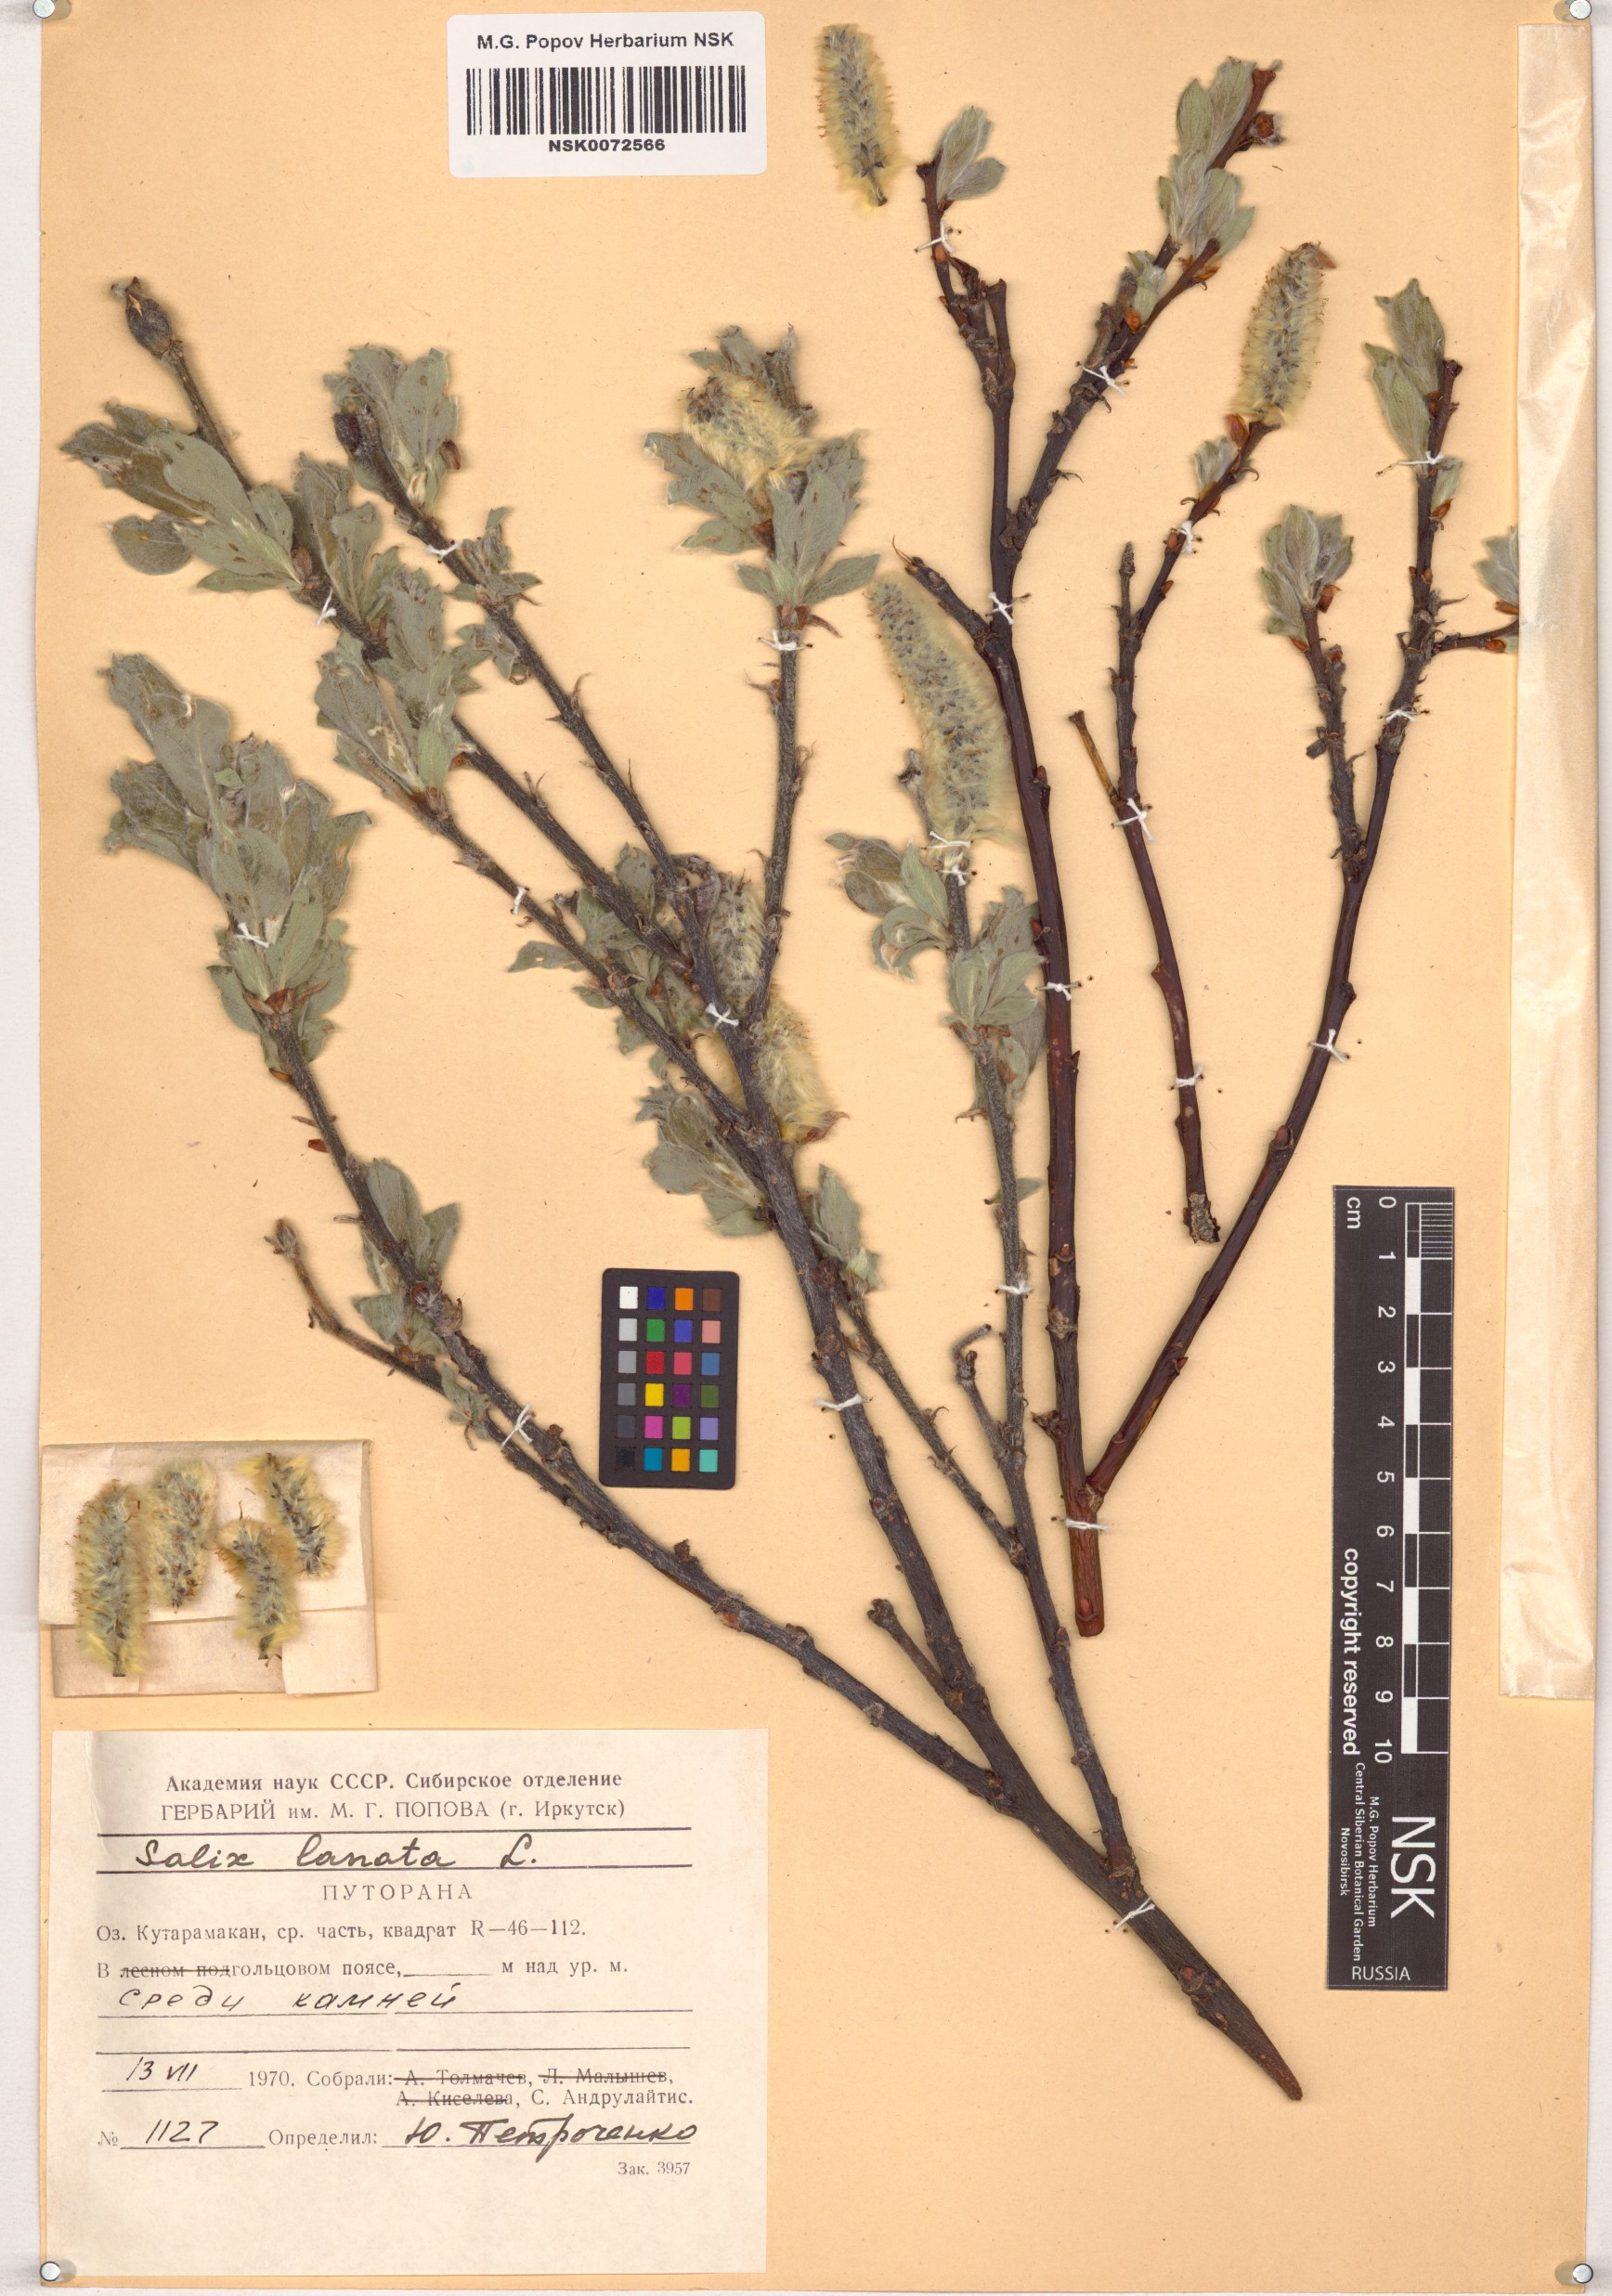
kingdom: Plantae
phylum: Tracheophyta
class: Magnoliopsida
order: Malpighiales
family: Salicaceae
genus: Salix
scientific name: Salix lanata
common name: Woolly willow
